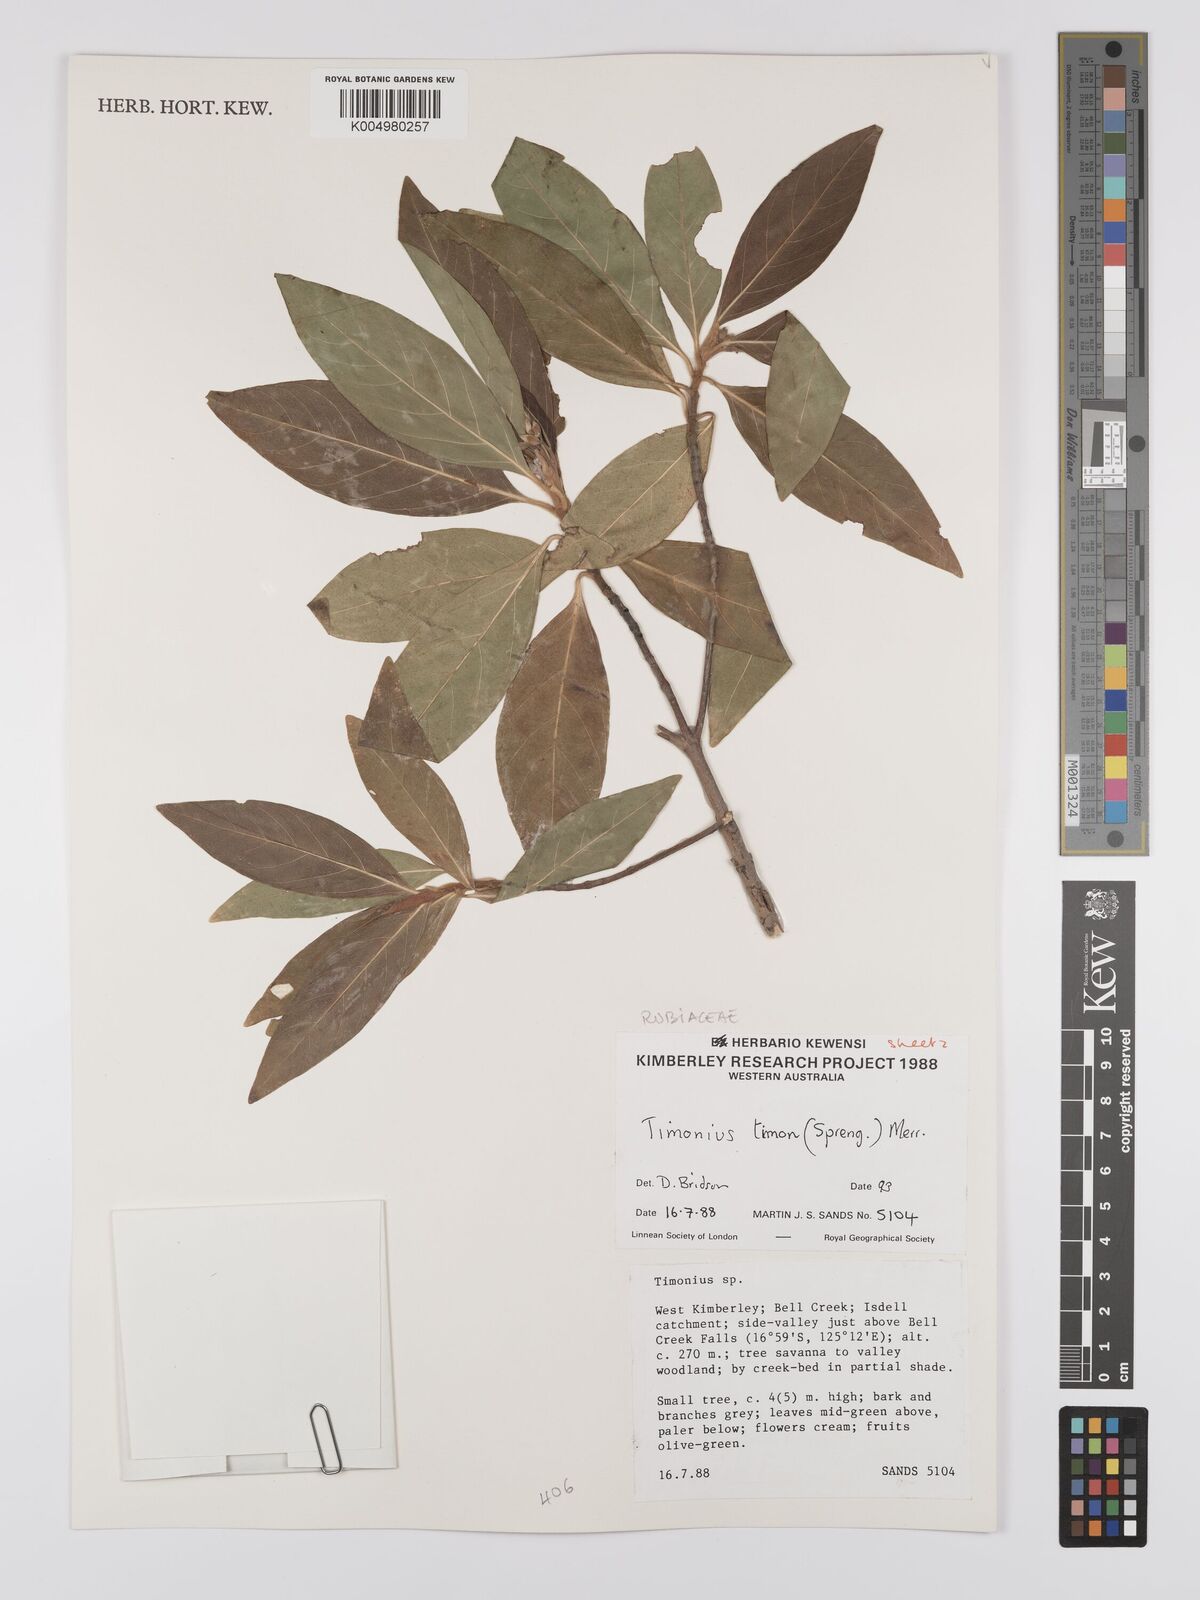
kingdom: Plantae
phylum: Tracheophyta
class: Magnoliopsida
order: Gentianales
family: Rubiaceae
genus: Timonius
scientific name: Timonius timon
